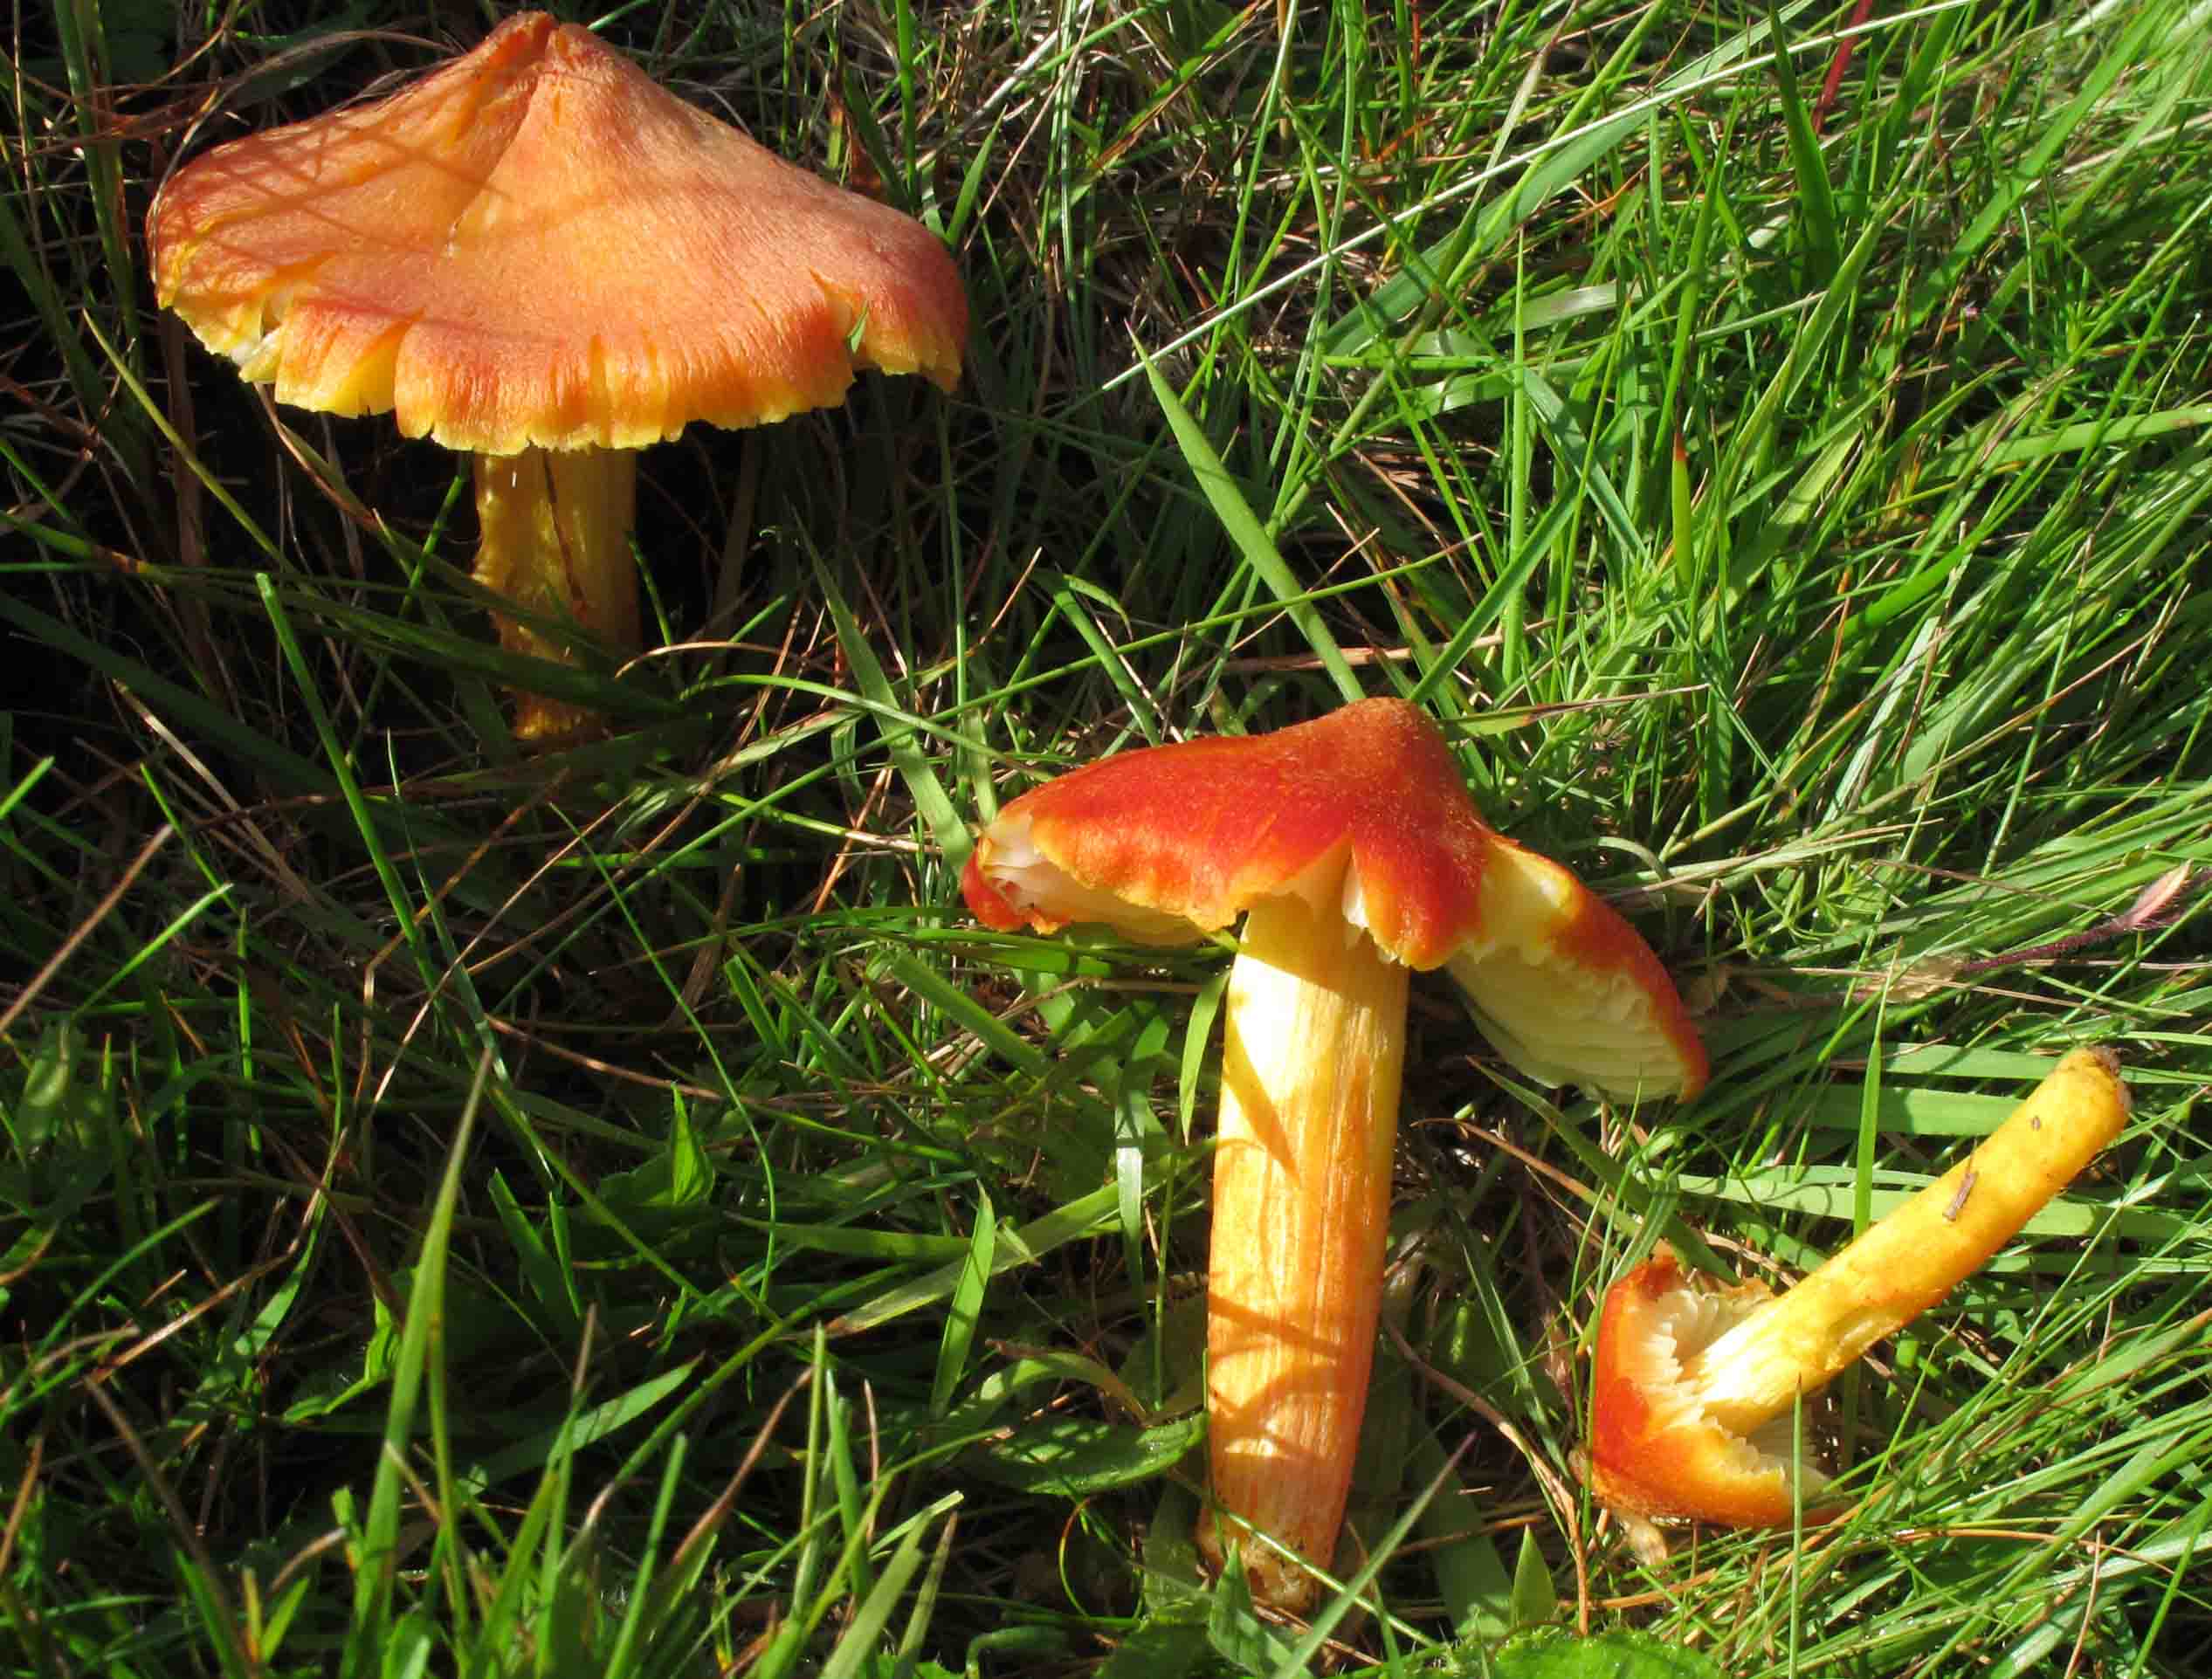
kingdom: Fungi
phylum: Basidiomycota
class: Agaricomycetes
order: Agaricales
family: Hygrophoraceae
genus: Hygrocybe
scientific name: Hygrocybe intermedia
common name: trævlet vokshat
